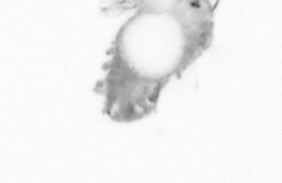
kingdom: Animalia
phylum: Annelida
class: Polychaeta
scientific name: Polychaeta
